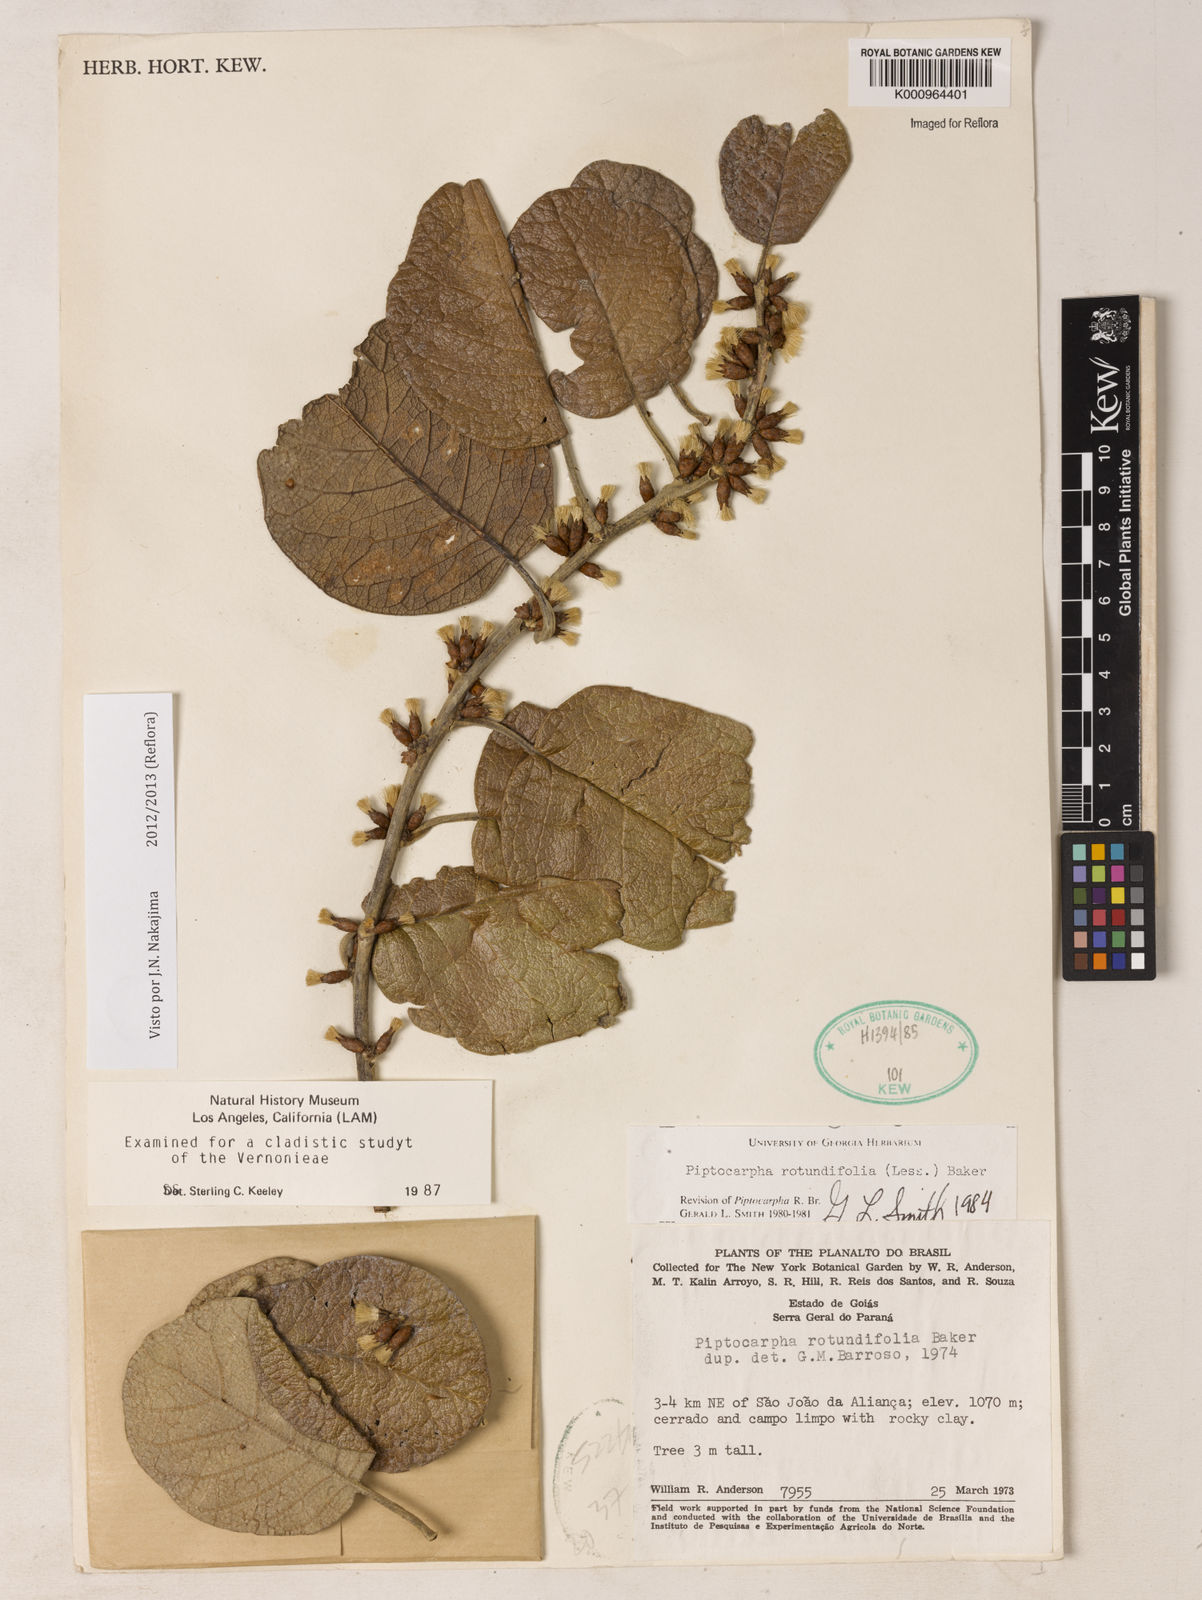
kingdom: Plantae
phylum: Tracheophyta
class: Magnoliopsida
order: Asterales
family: Asteraceae
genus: Piptocarpha
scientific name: Piptocarpha rotundifolia
